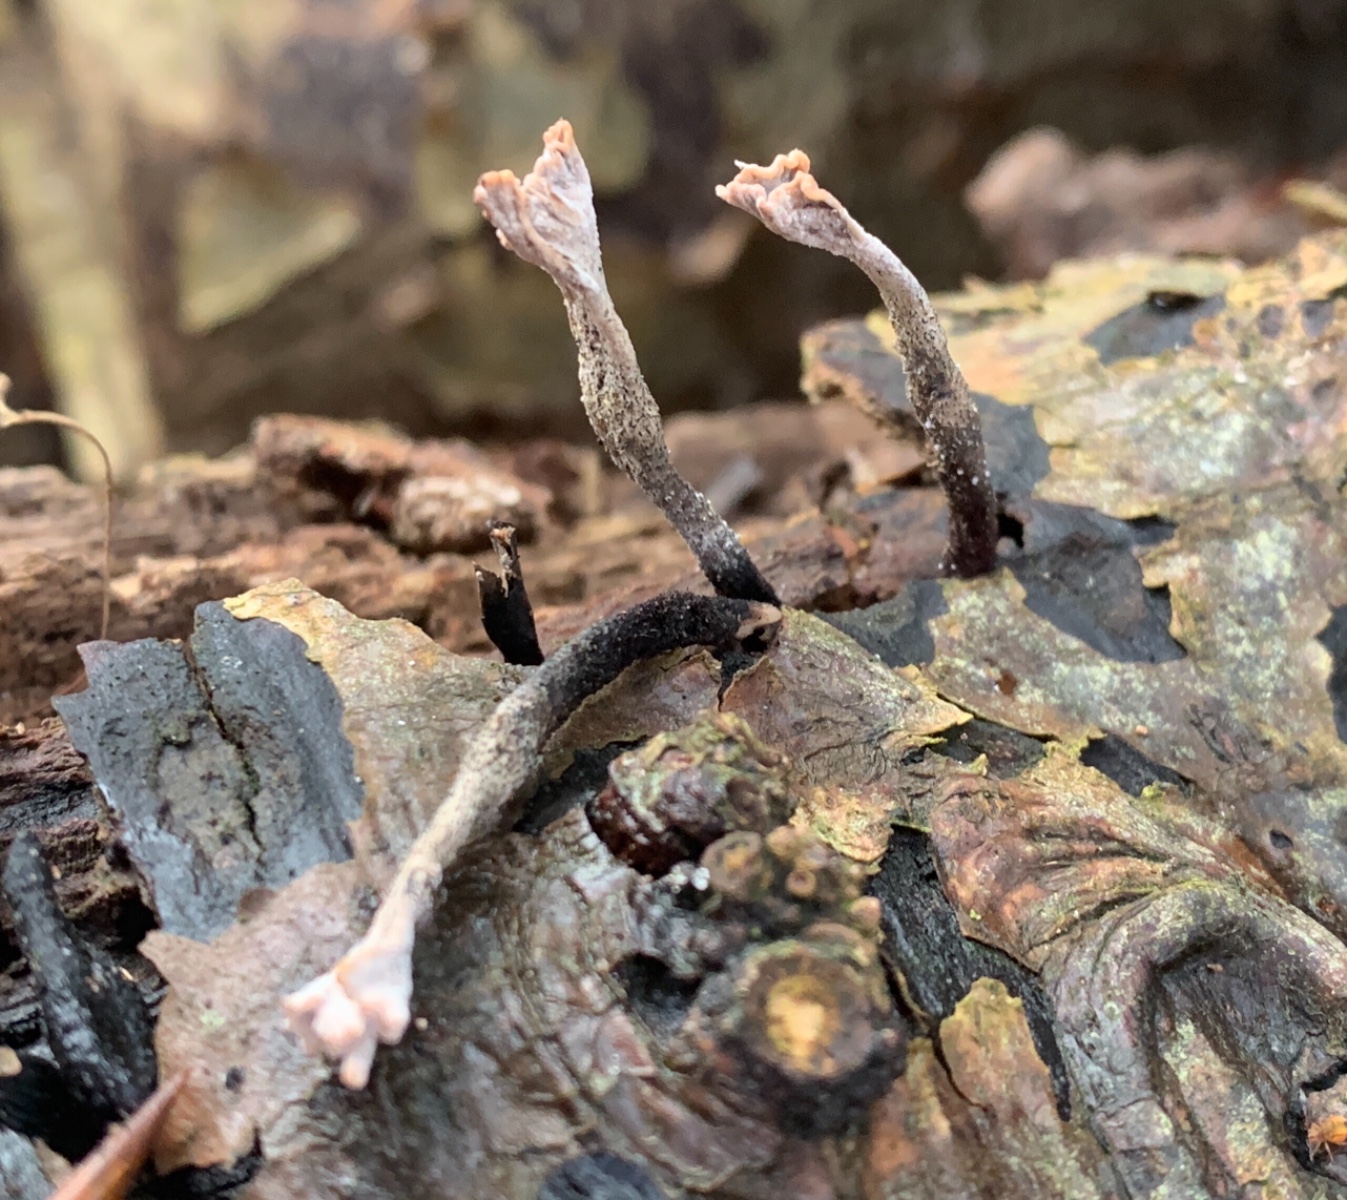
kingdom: Fungi
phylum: Ascomycota
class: Sordariomycetes
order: Xylariales
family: Xylariaceae
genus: Xylaria
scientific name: Xylaria hypoxylon
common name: grenet stødsvamp
